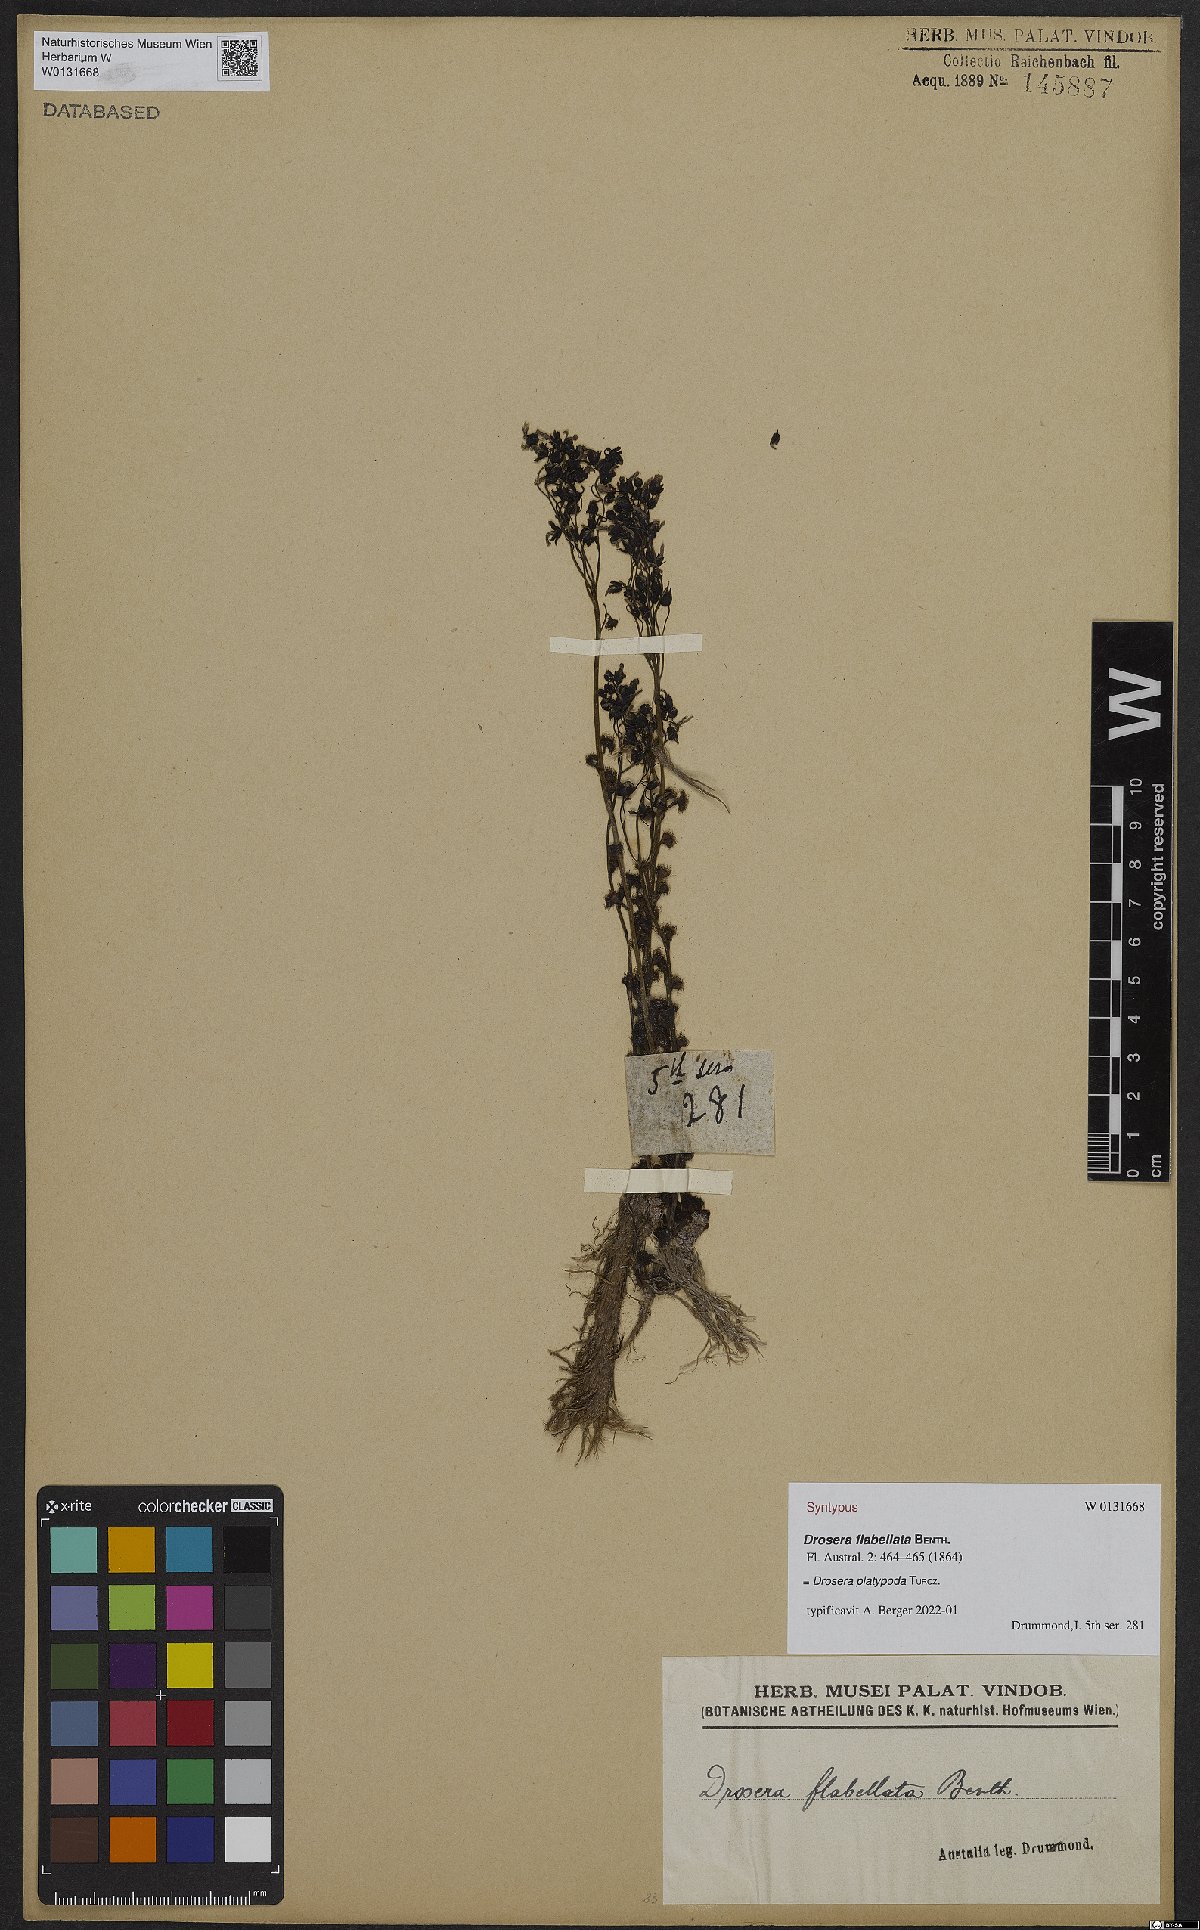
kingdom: Plantae
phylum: Tracheophyta
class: Magnoliopsida
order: Caryophyllales
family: Droseraceae
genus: Drosera
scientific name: Drosera platypoda
